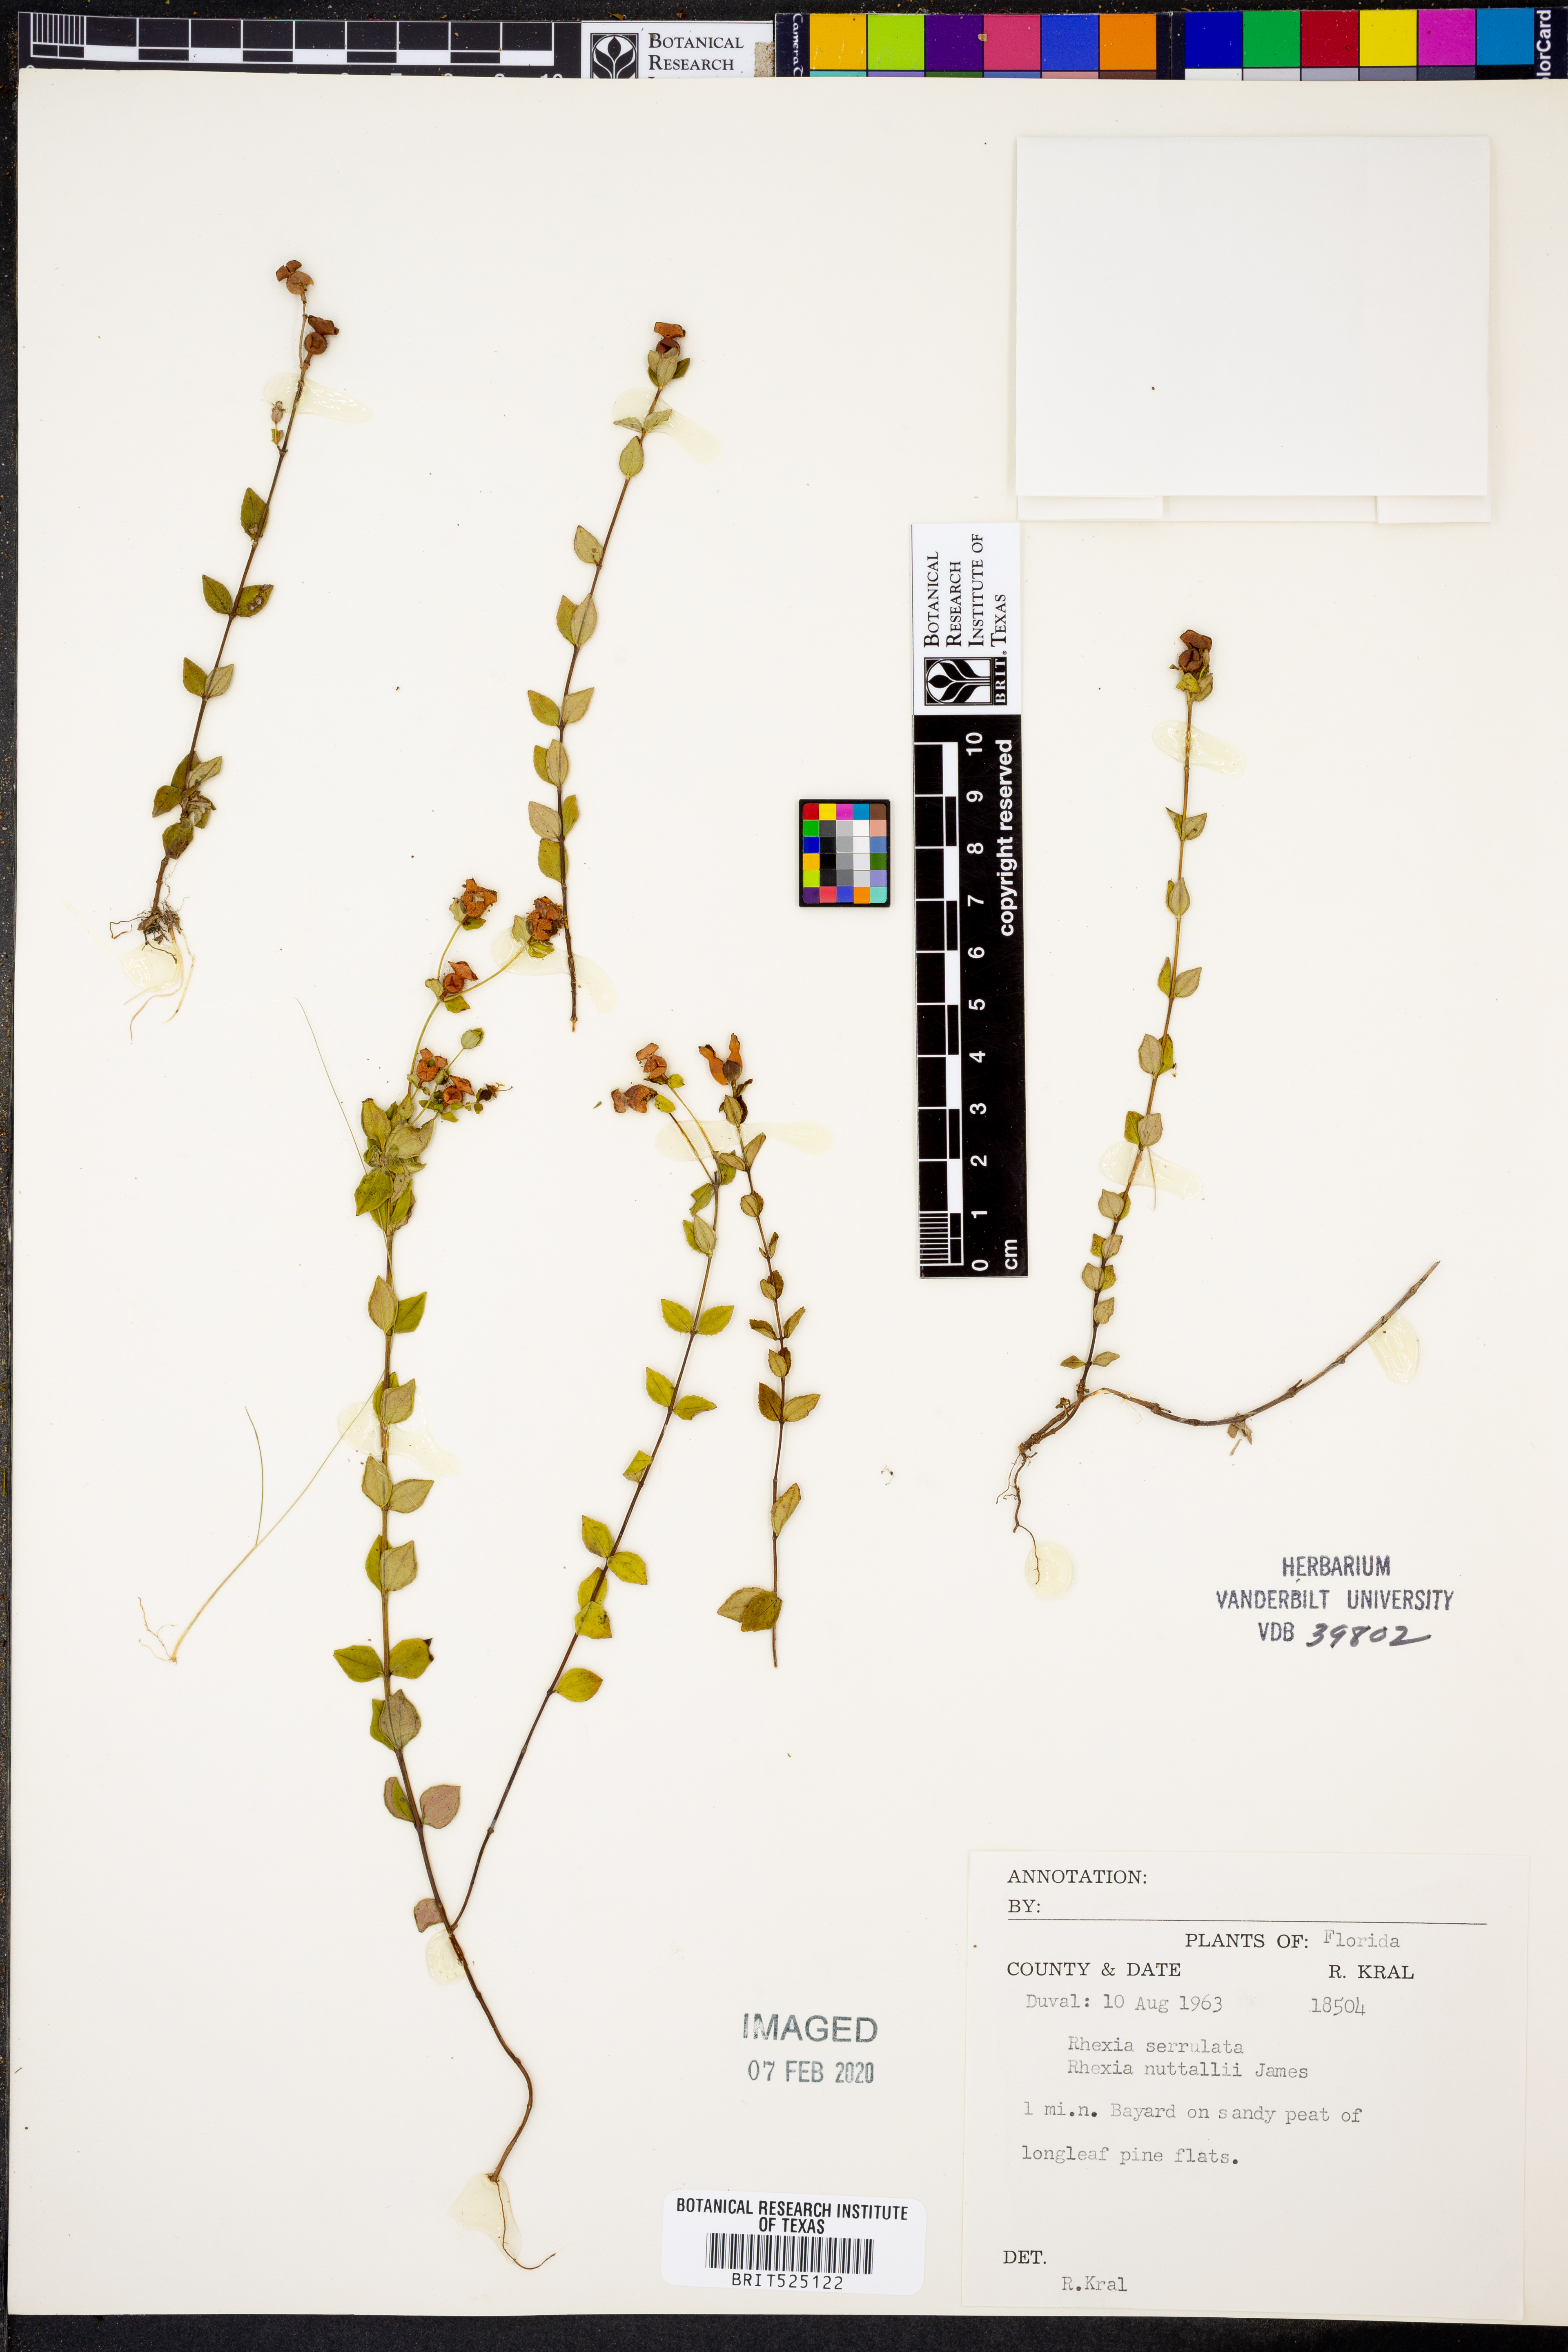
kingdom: Plantae
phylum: Tracheophyta
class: Magnoliopsida
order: Myrtales
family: Melastomataceae
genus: Rhexia
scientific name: Rhexia nuttallii
